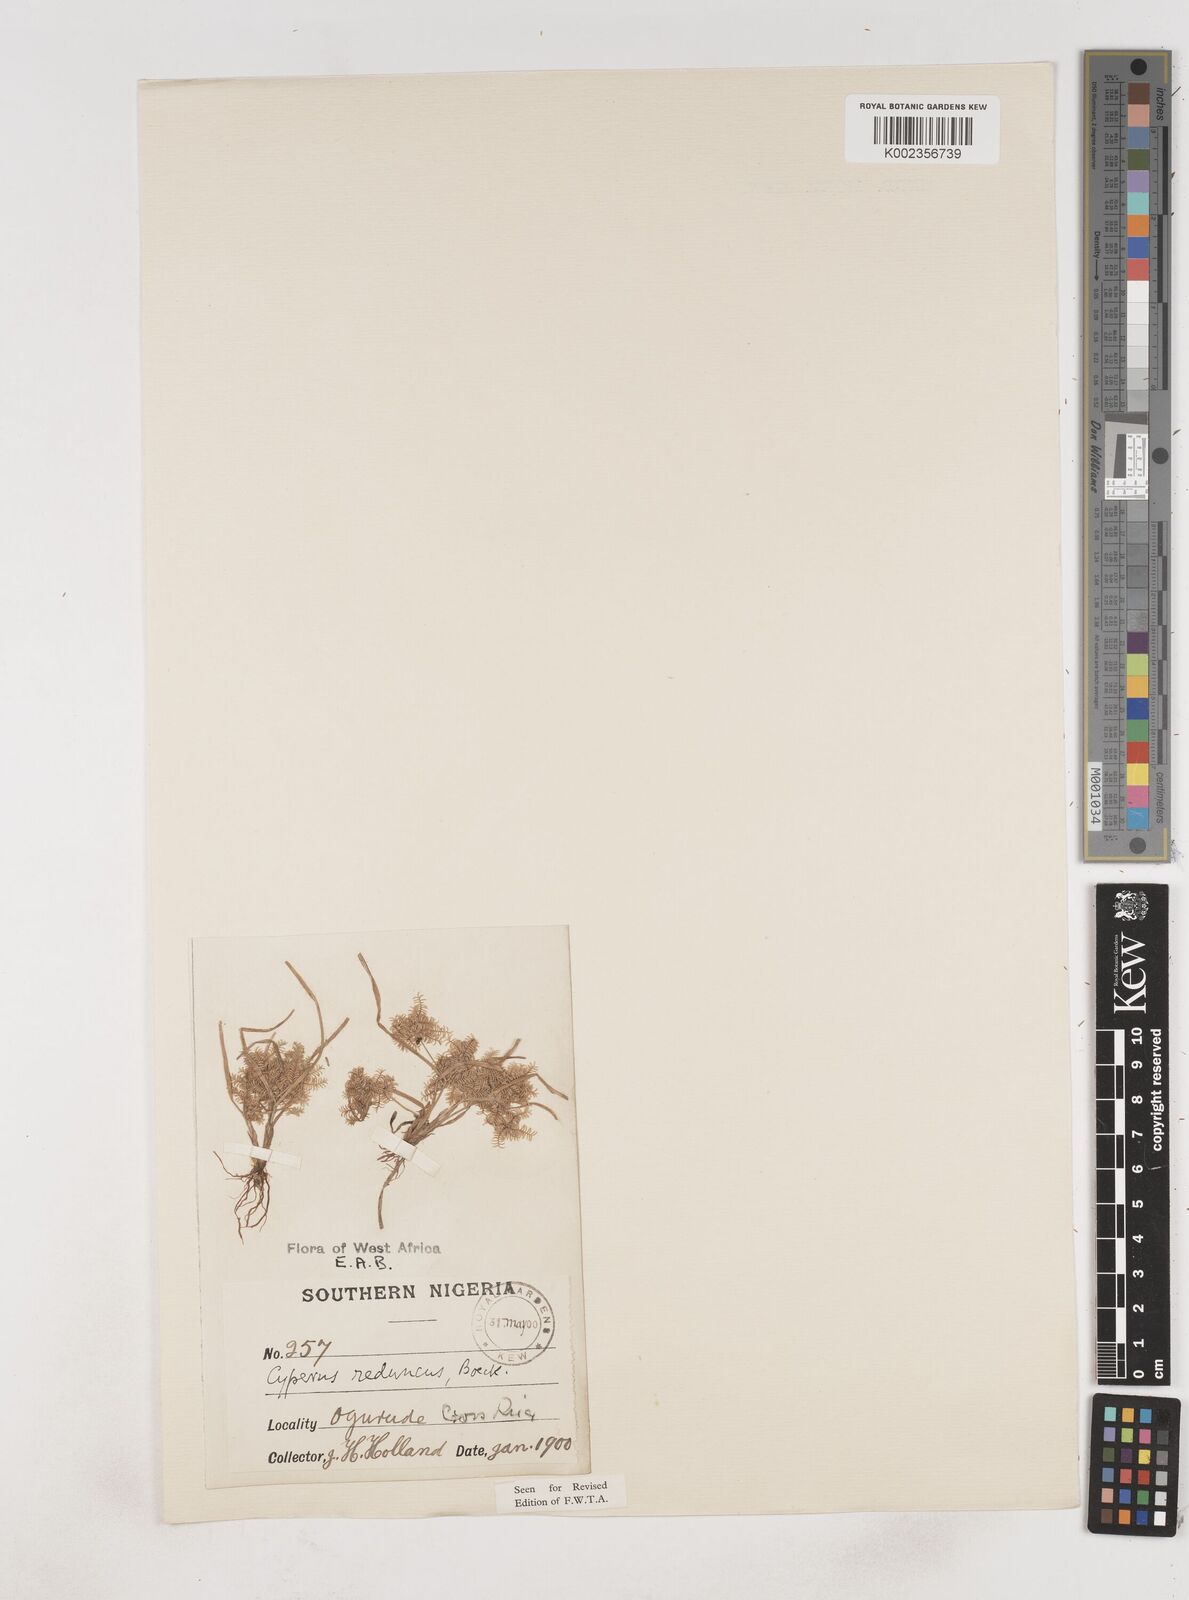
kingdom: Plantae
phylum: Tracheophyta
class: Liliopsida
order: Poales
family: Cyperaceae
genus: Cyperus
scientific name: Cyperus reduncus
